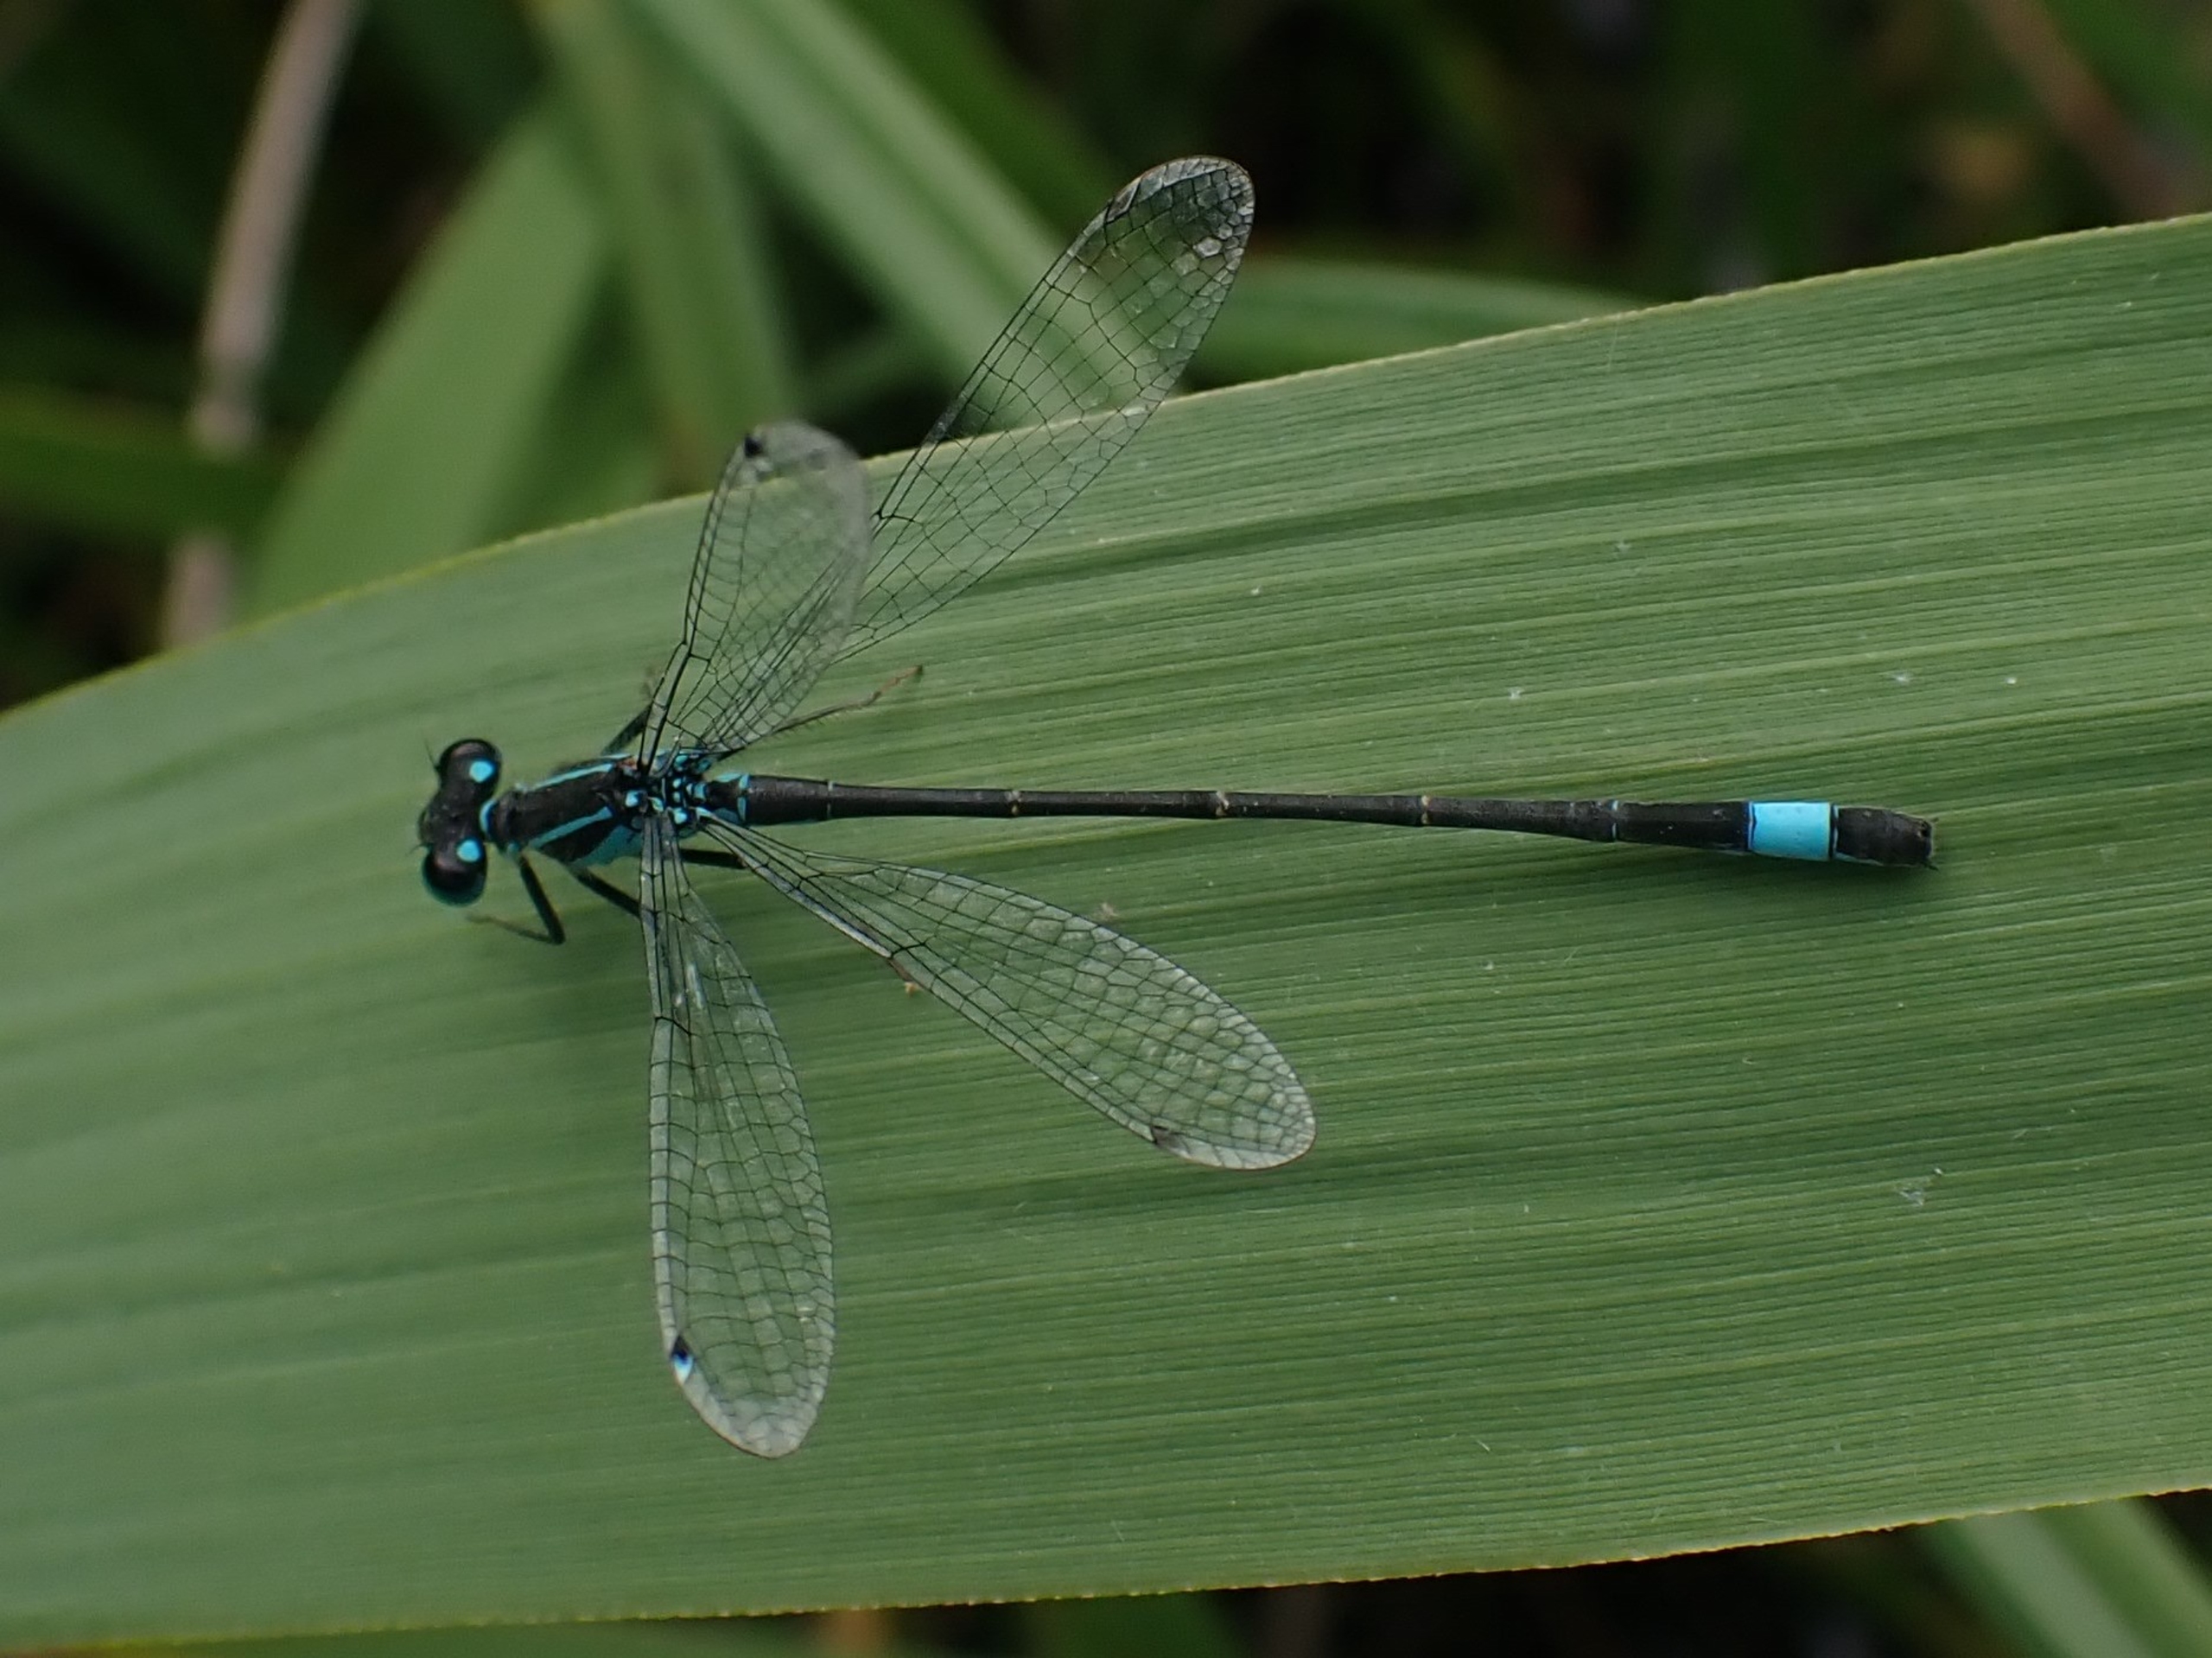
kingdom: Animalia
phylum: Arthropoda
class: Insecta
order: Odonata
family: Coenagrionidae
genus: Ischnura
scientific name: Ischnura elegans
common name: Stor farvevandnymfe
